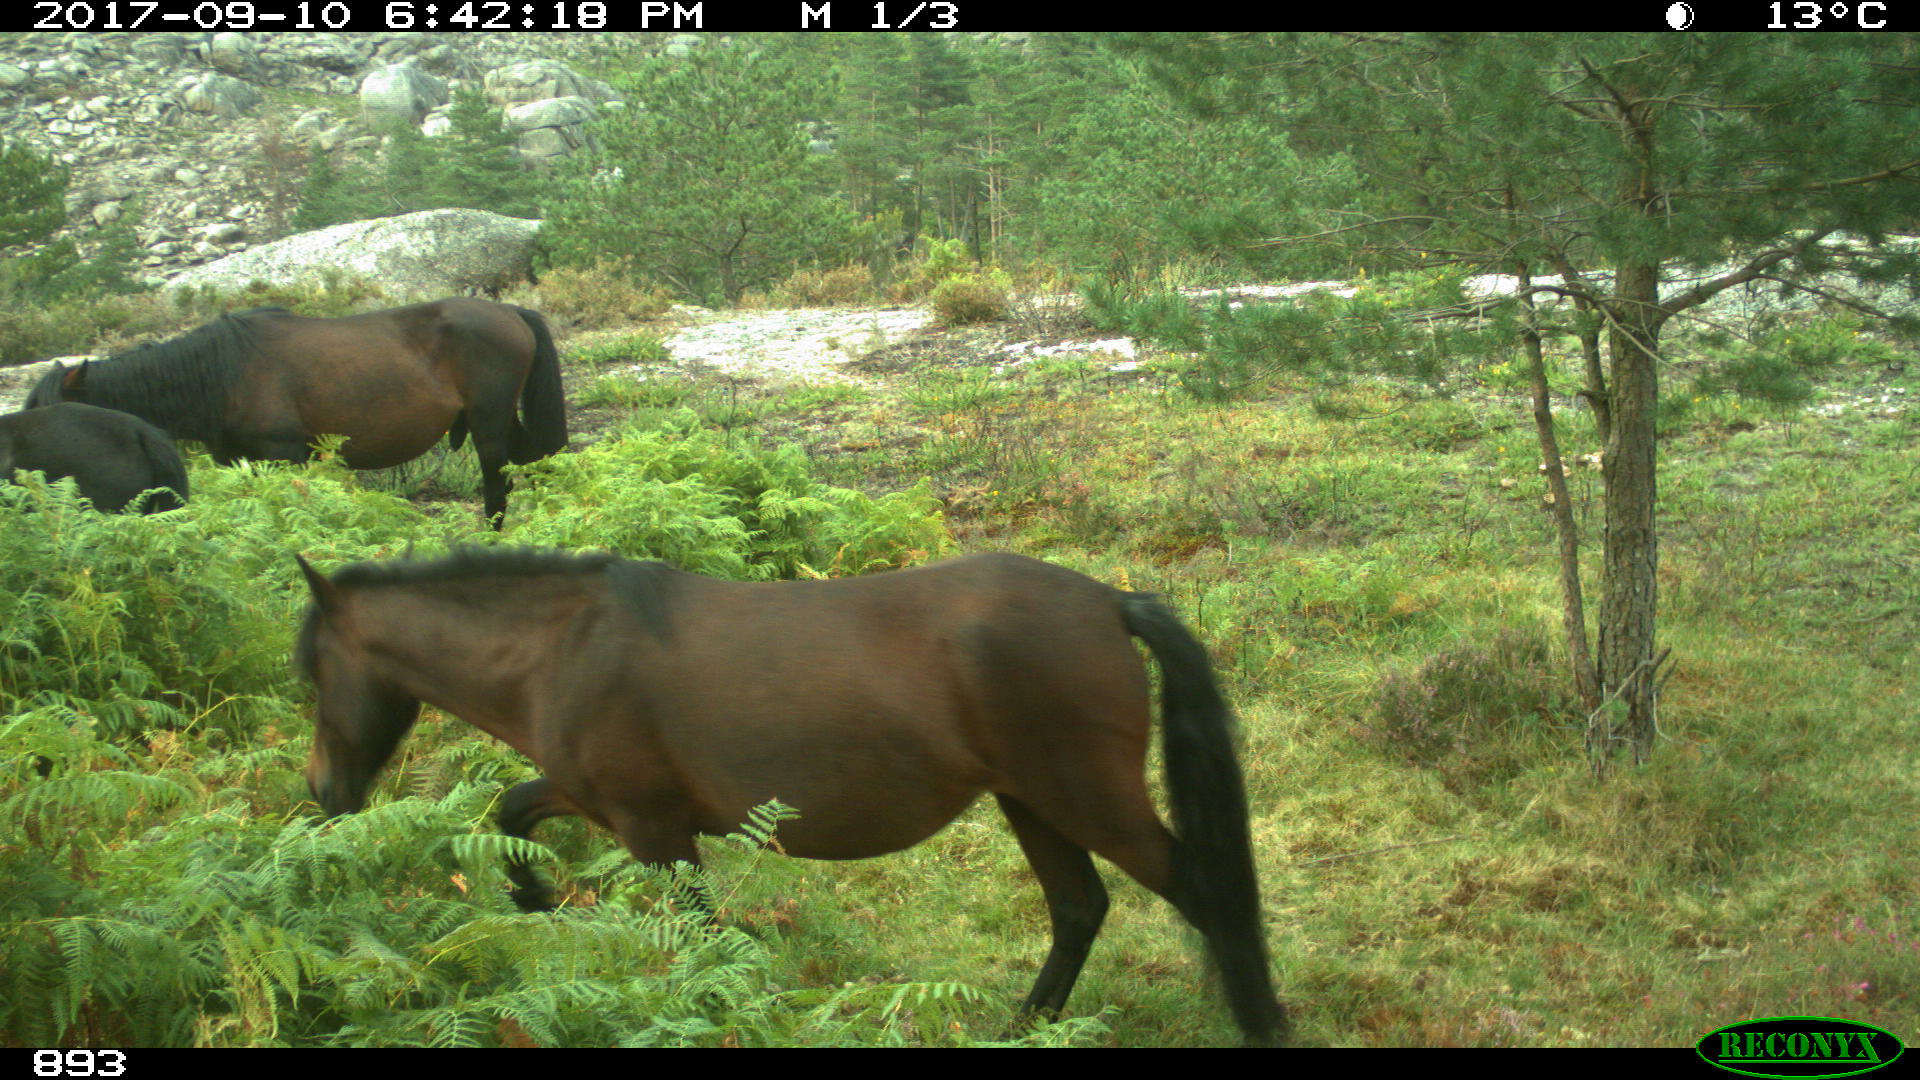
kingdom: Animalia
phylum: Chordata
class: Mammalia
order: Perissodactyla
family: Equidae
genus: Equus
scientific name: Equus caballus
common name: Horse
